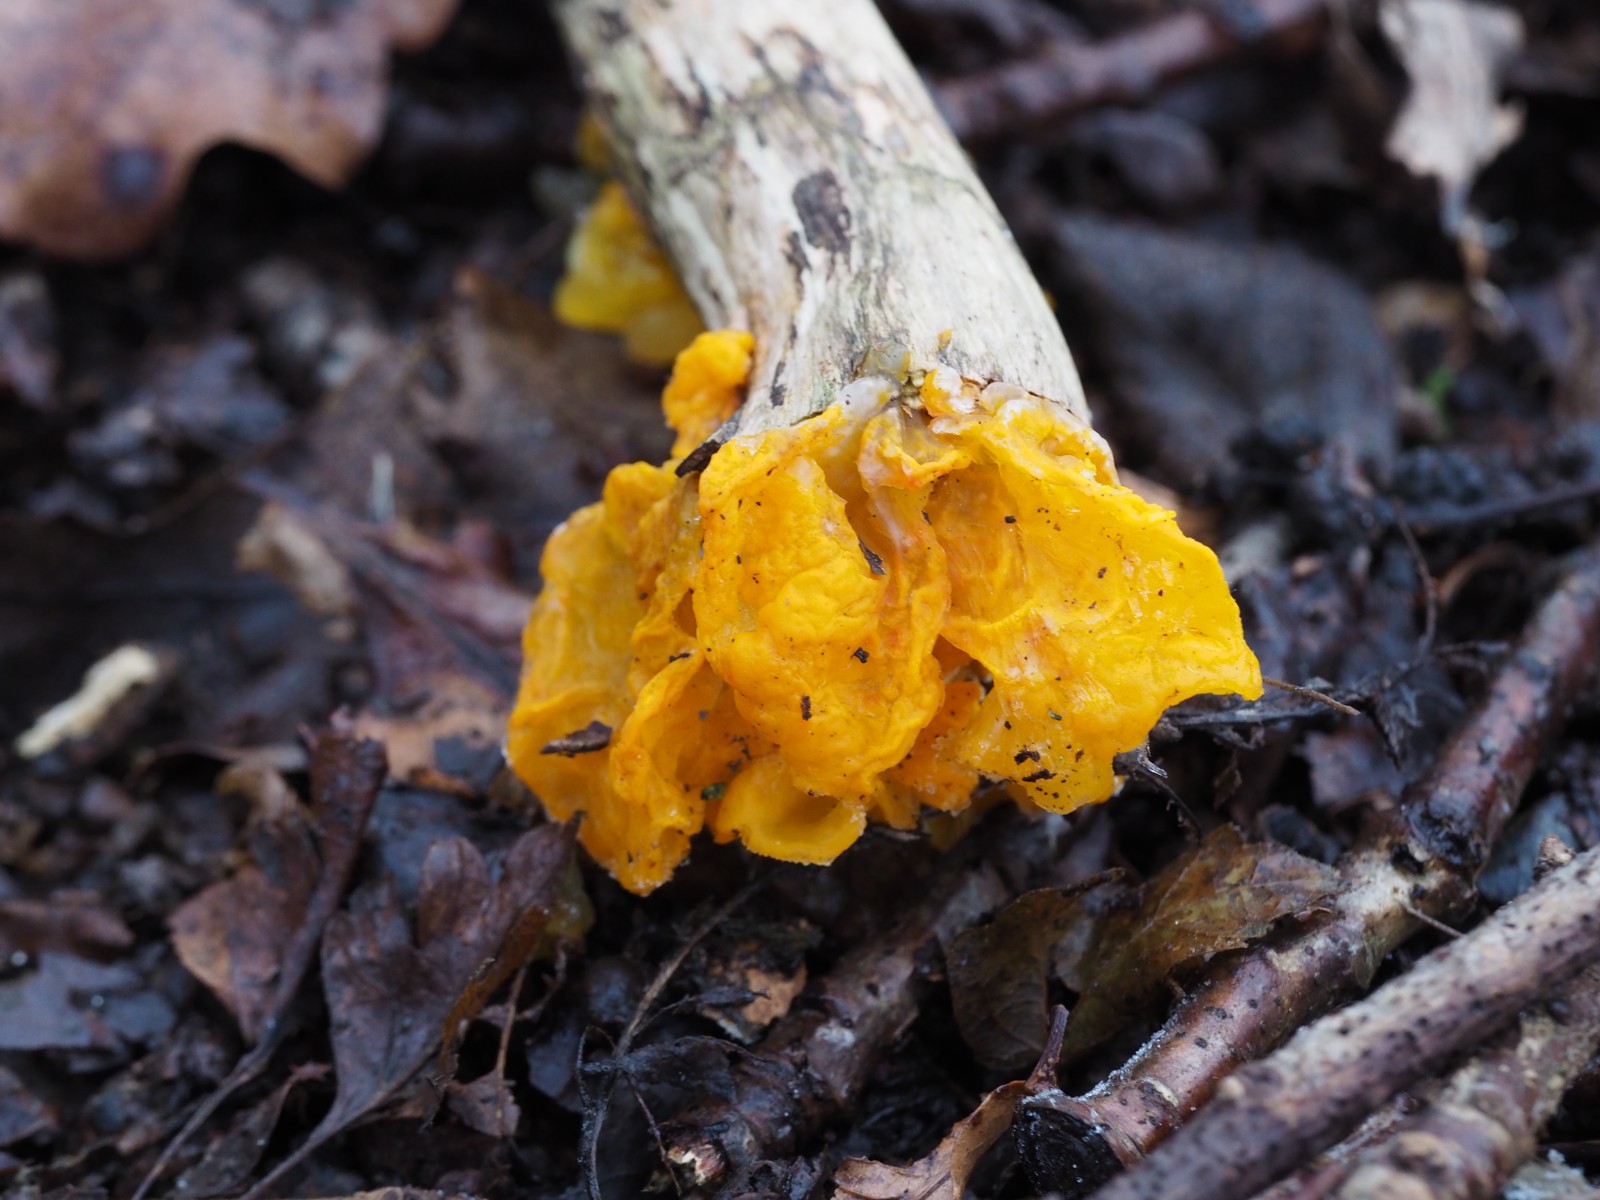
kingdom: Fungi
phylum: Basidiomycota
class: Tremellomycetes
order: Tremellales
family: Tremellaceae
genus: Tremella
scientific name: Tremella mesenterica
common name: gul bævresvamp
